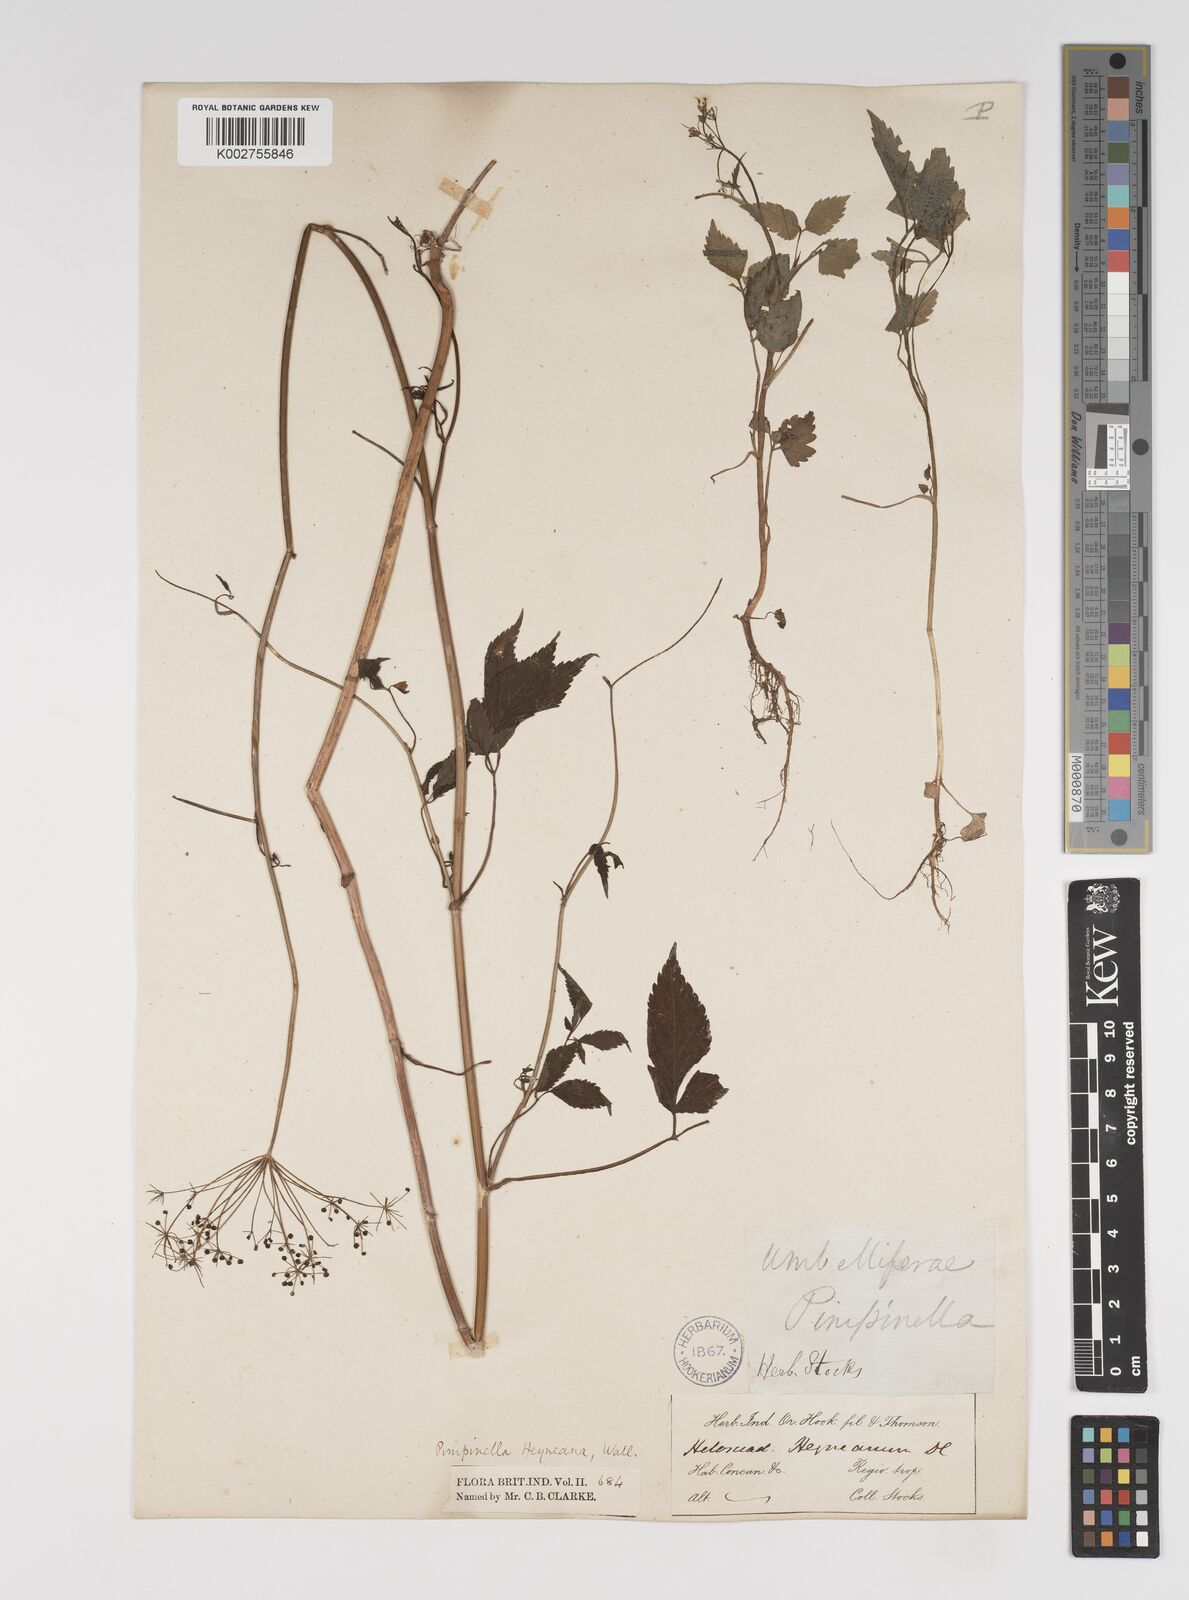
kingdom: Plantae
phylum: Tracheophyta
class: Magnoliopsida
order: Apiales
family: Apiaceae
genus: Pimpinella
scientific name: Pimpinella heyneana
